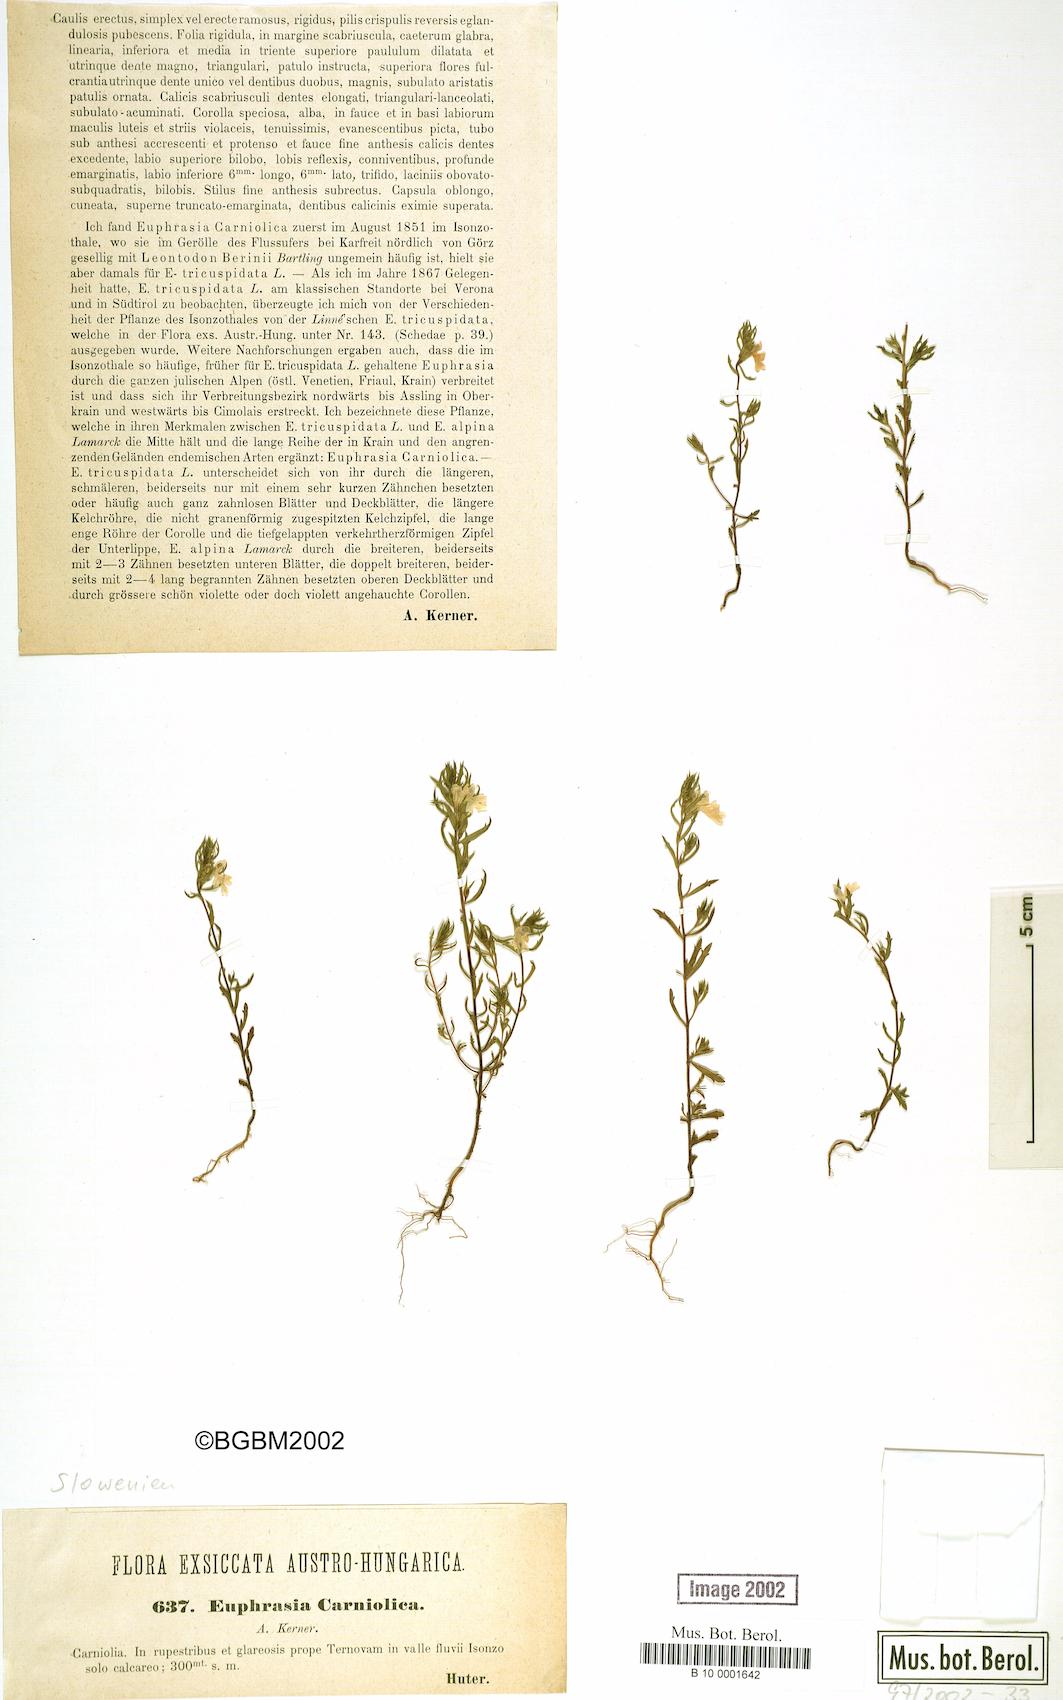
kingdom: Plantae
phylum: Tracheophyta
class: Magnoliopsida
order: Lamiales
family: Orobanchaceae
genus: Euphrasia
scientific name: Euphrasia officinalis
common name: Eyebright
